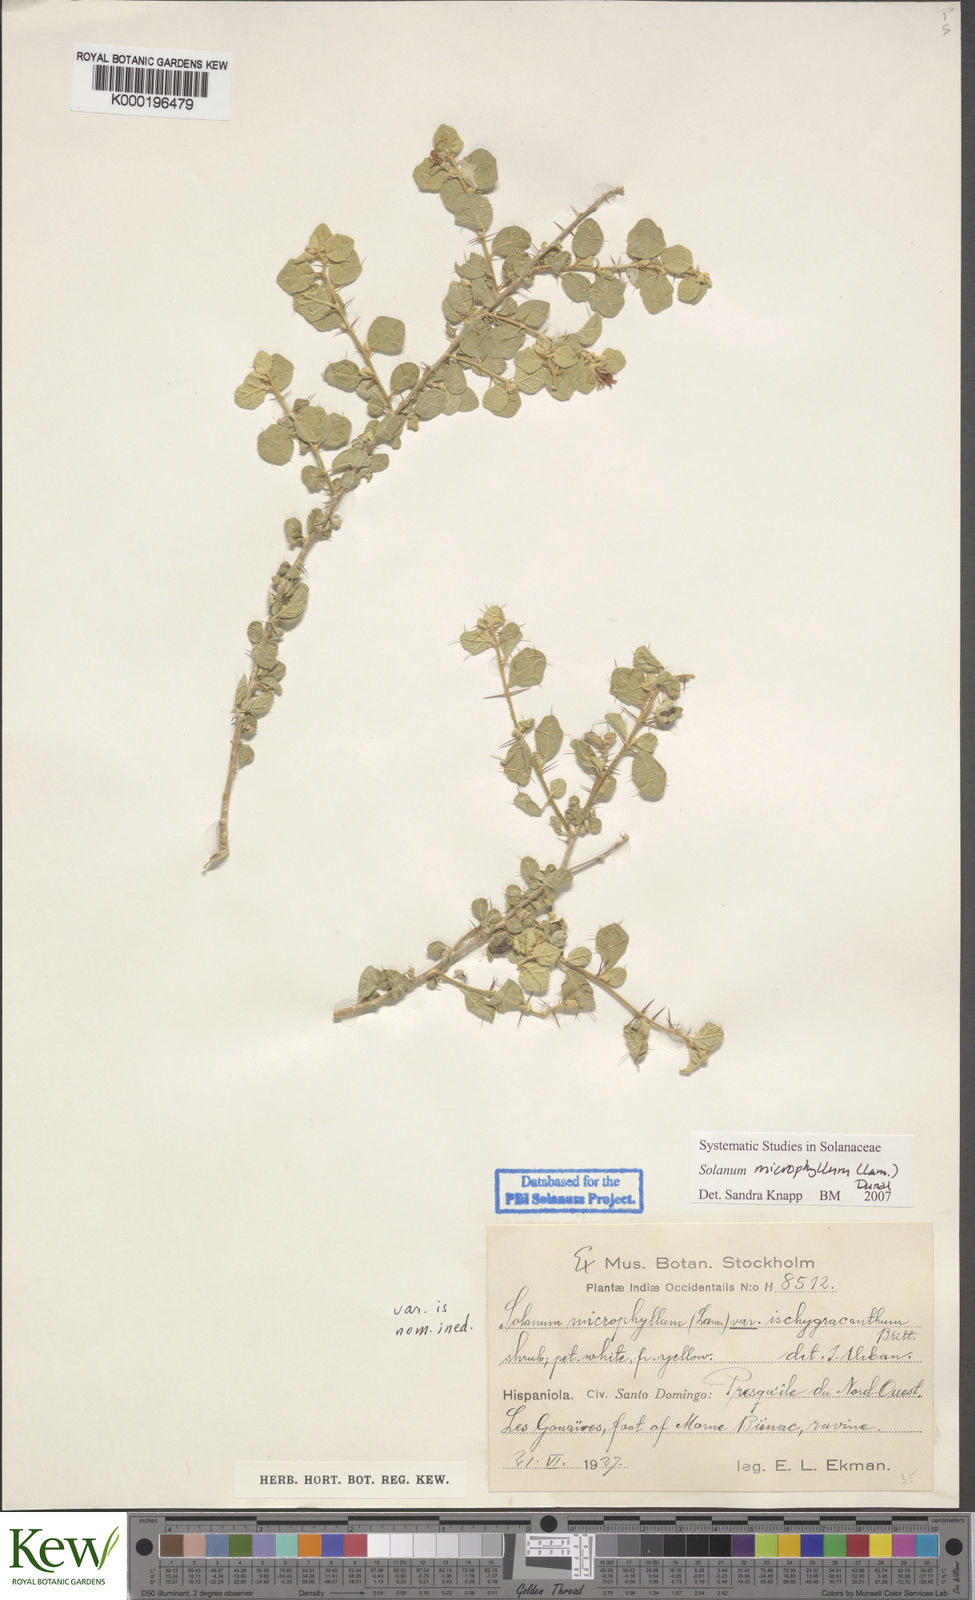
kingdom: Plantae
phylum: Tracheophyta
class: Magnoliopsida
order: Solanales
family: Solanaceae
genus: Solanum
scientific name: Solanum
